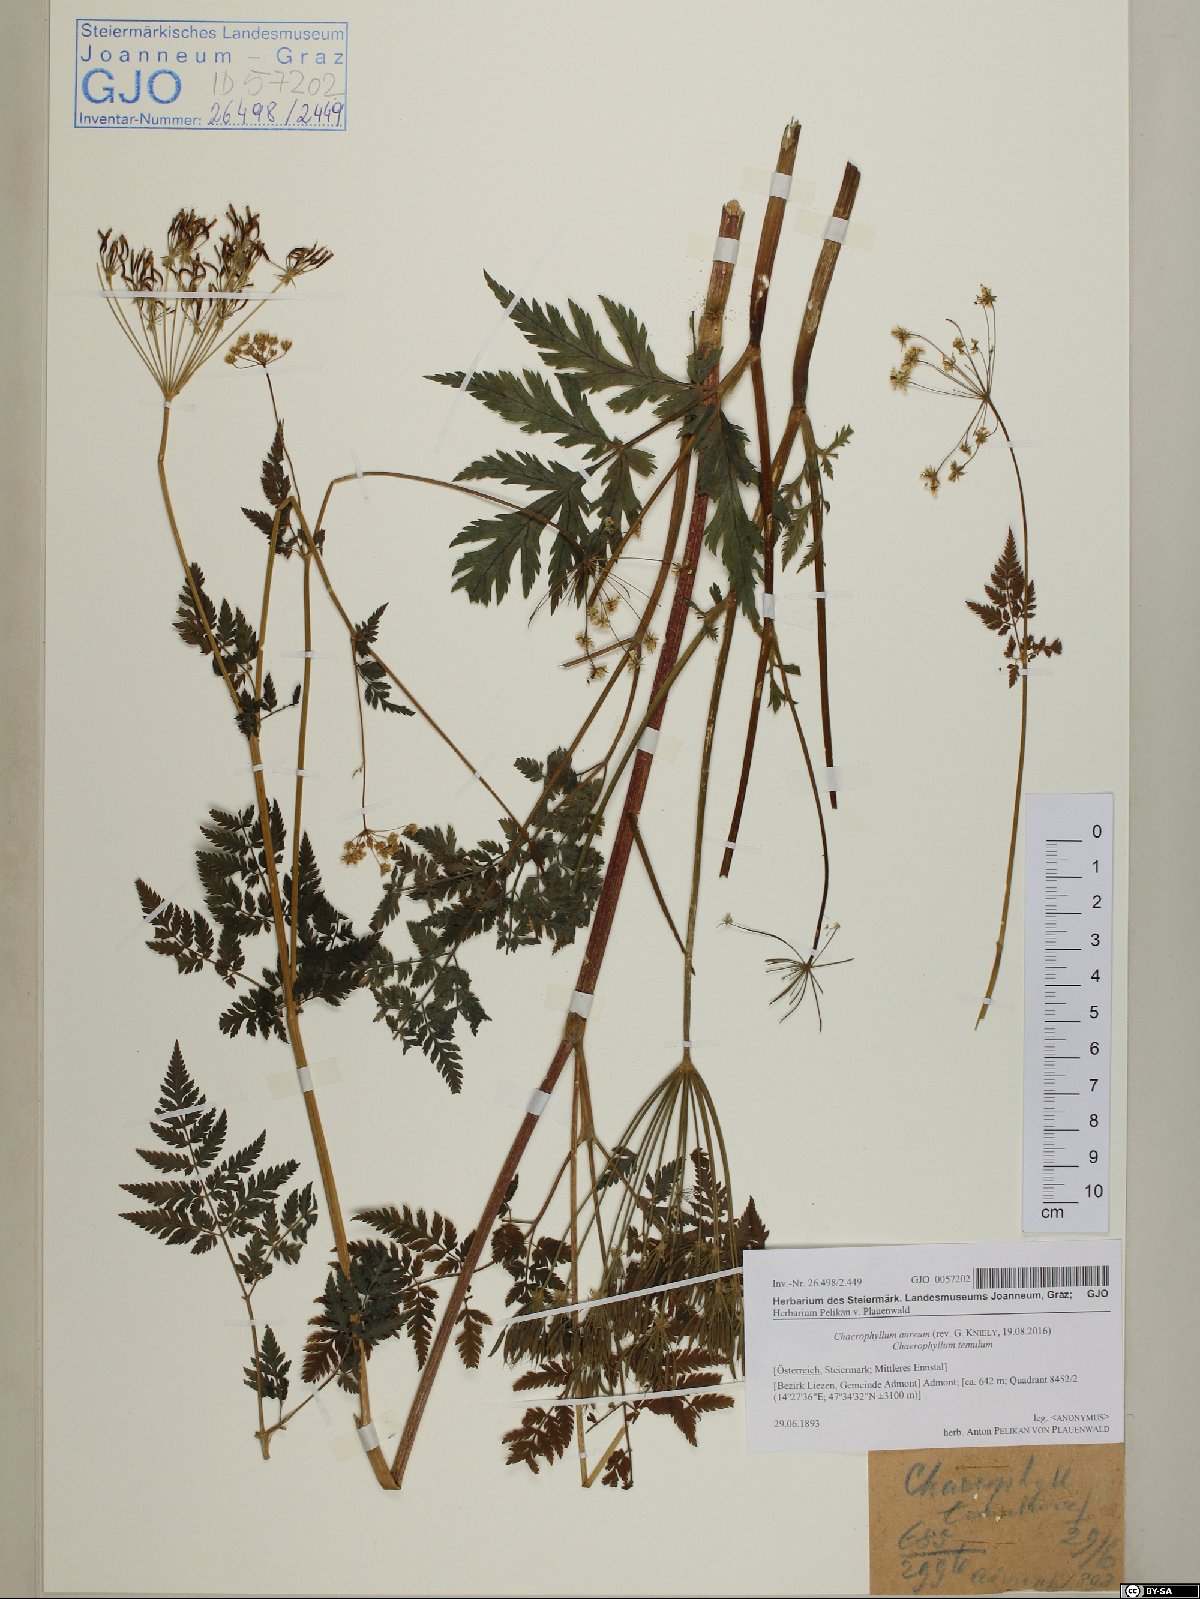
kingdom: Plantae
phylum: Tracheophyta
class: Magnoliopsida
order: Apiales
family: Apiaceae
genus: Chaerophyllum
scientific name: Chaerophyllum aureum
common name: Golden chervil
